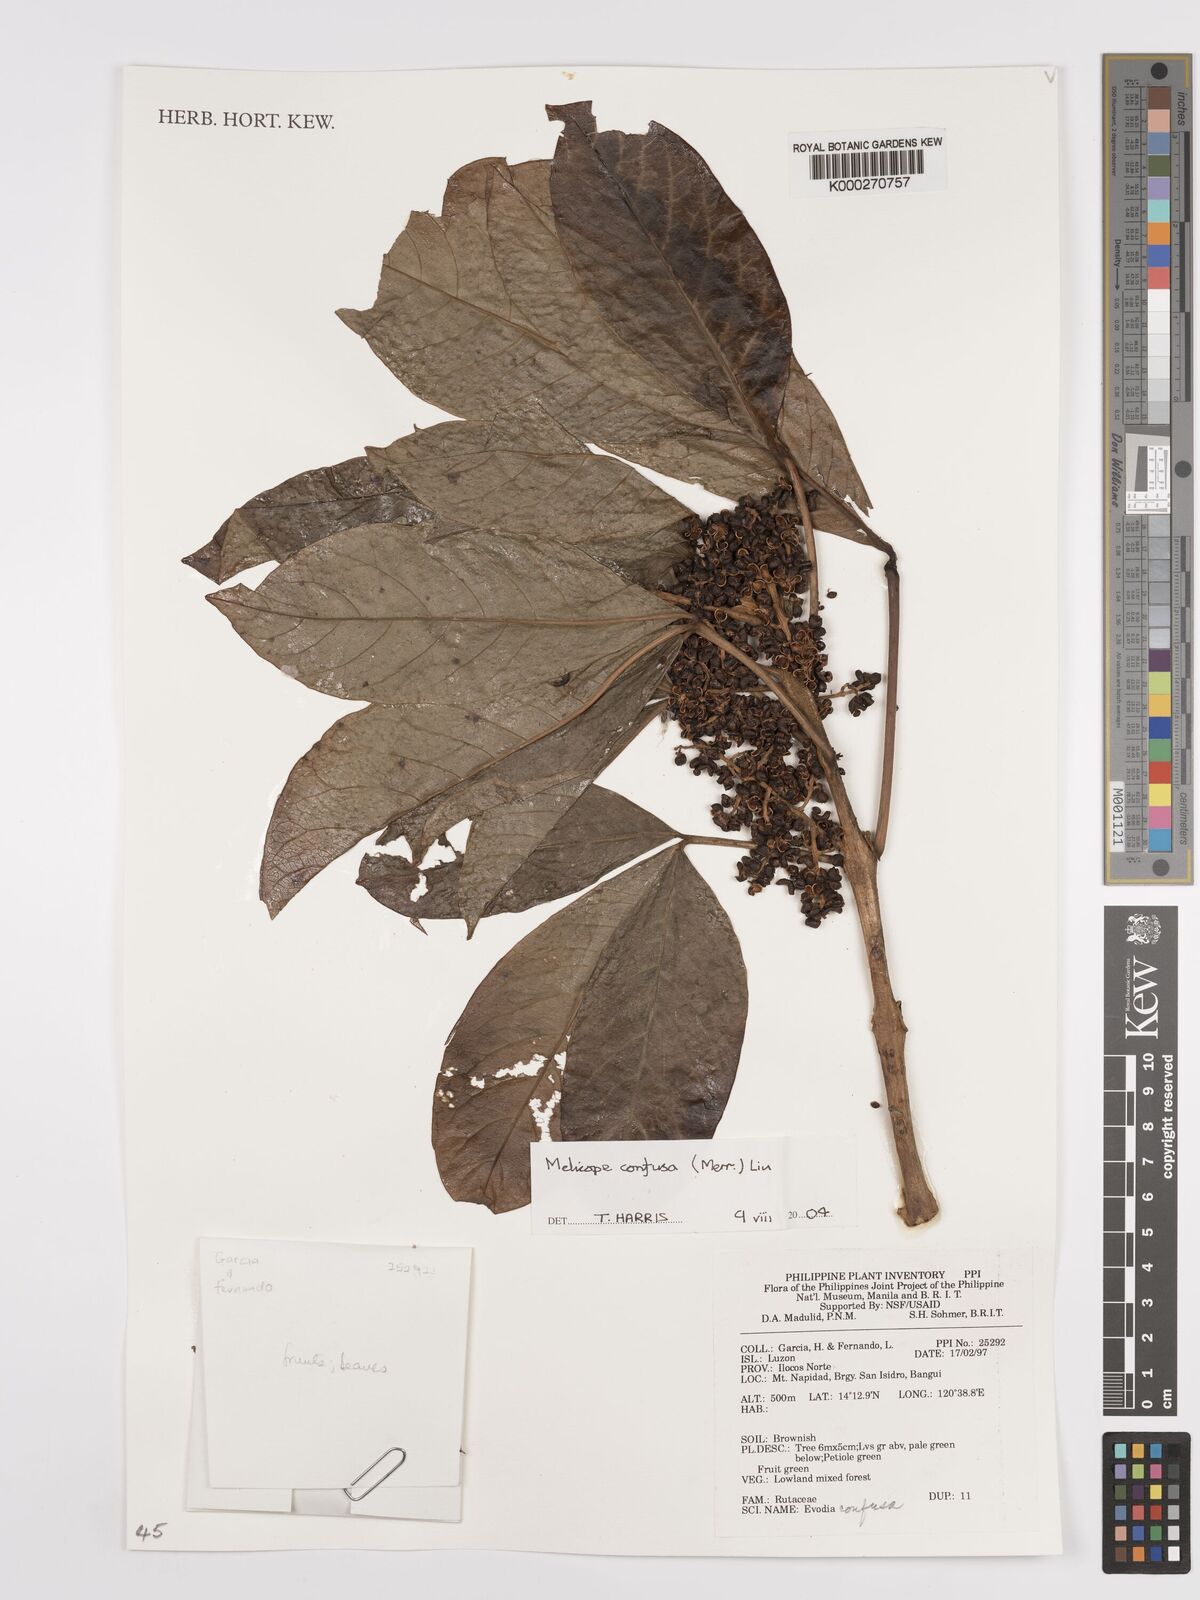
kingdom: Plantae
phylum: Tracheophyta
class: Magnoliopsida
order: Sapindales
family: Rutaceae
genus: Melicope
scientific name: Melicope frutescens
